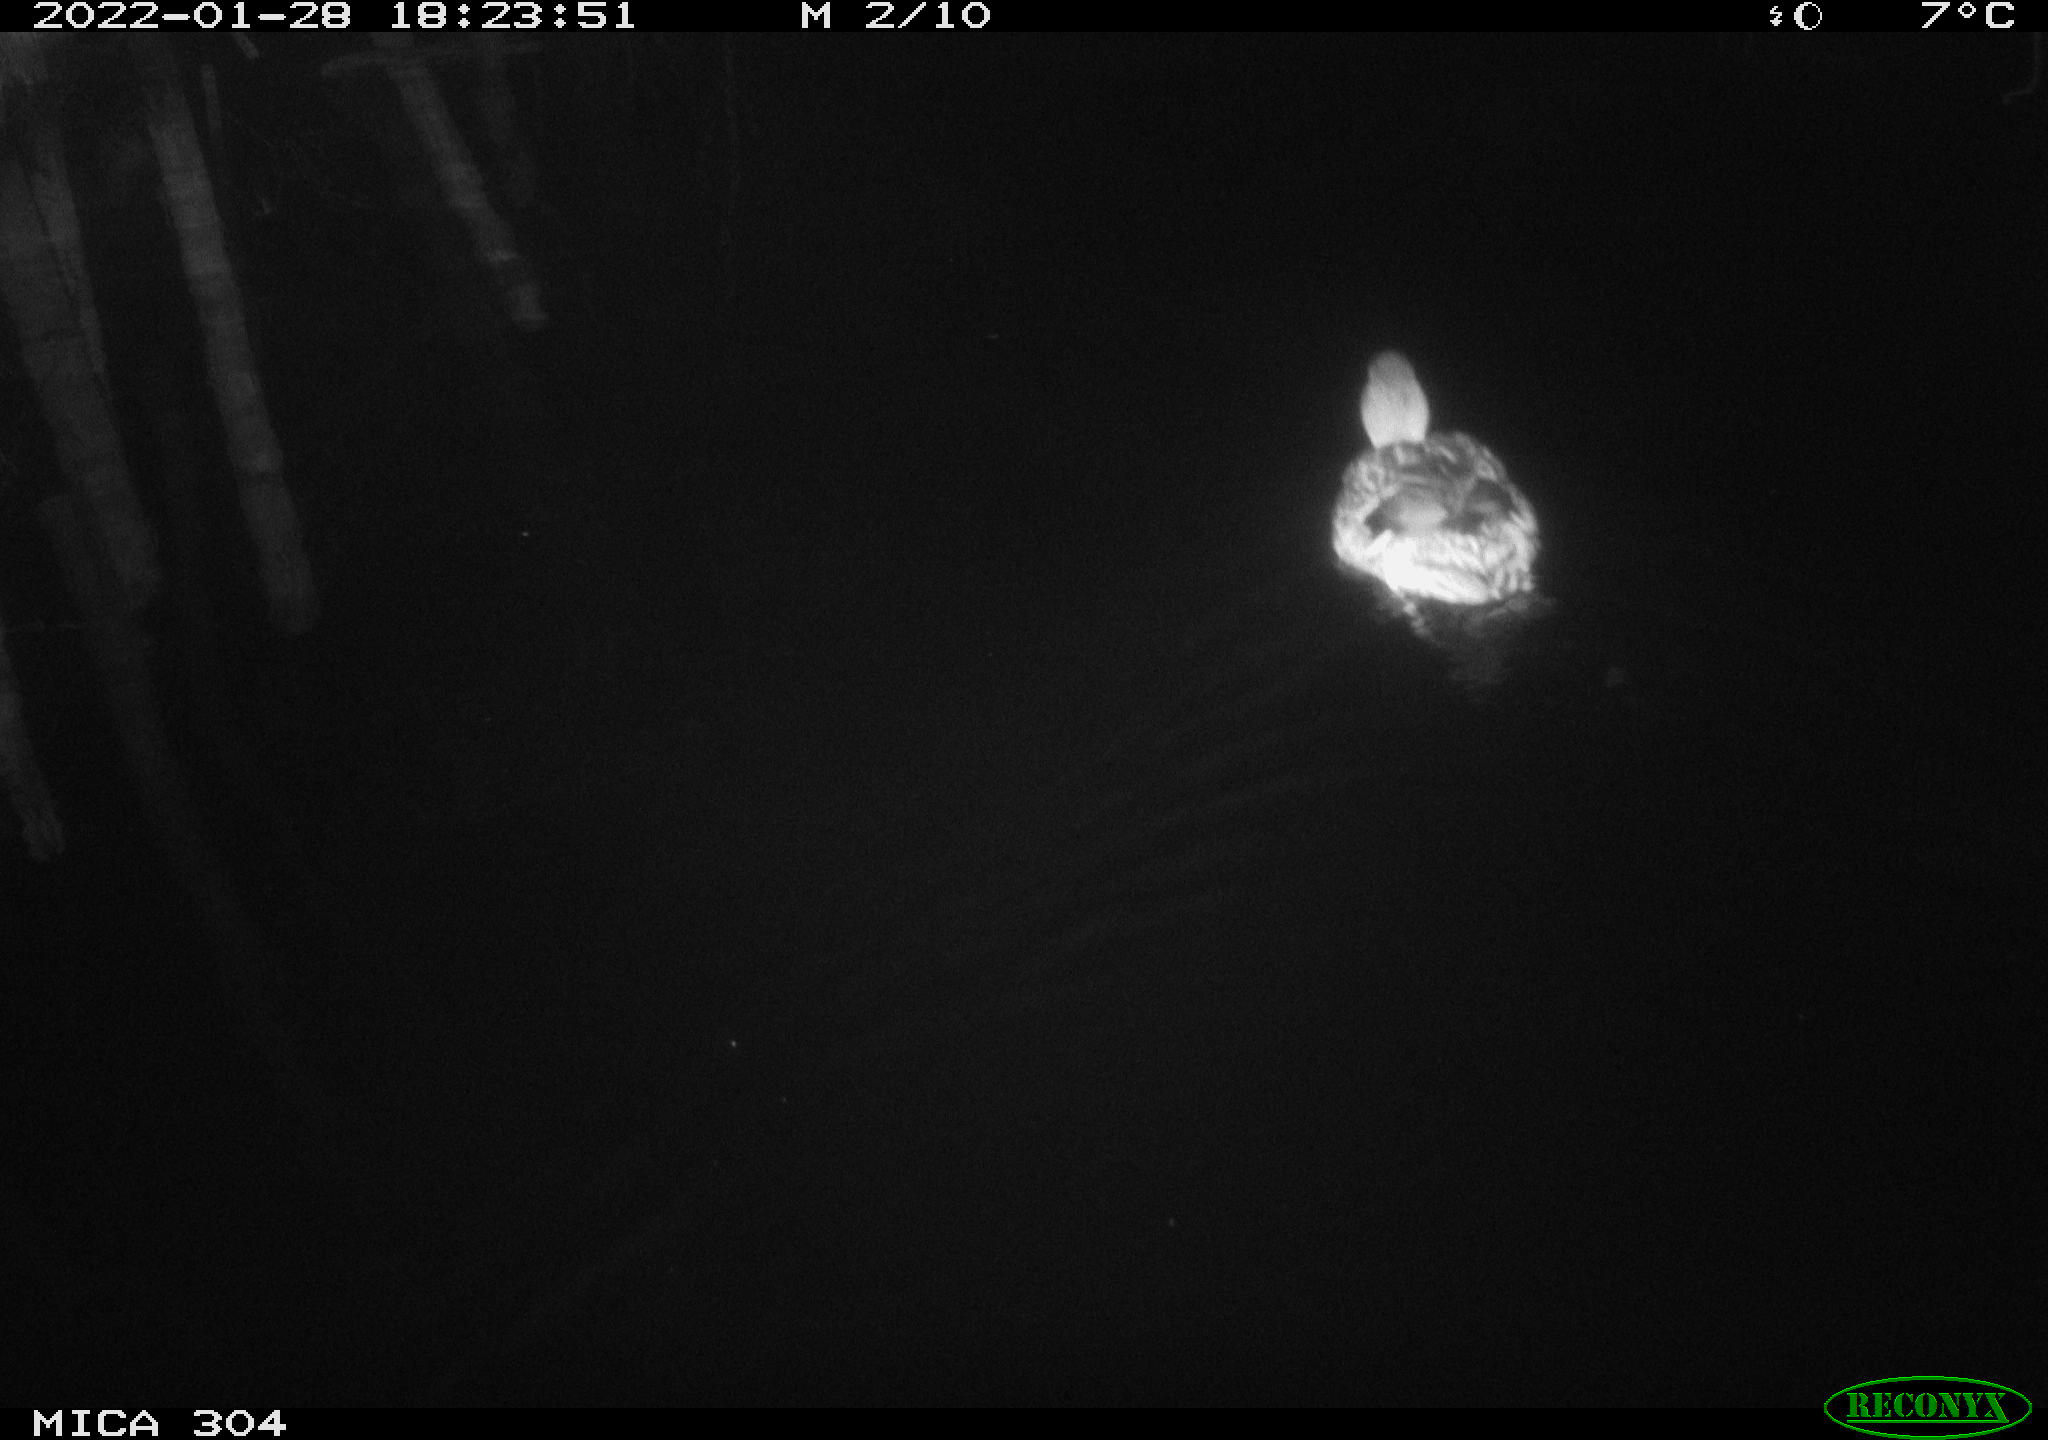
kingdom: Animalia
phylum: Chordata
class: Aves
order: Anseriformes
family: Anatidae
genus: Anas
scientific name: Anas
